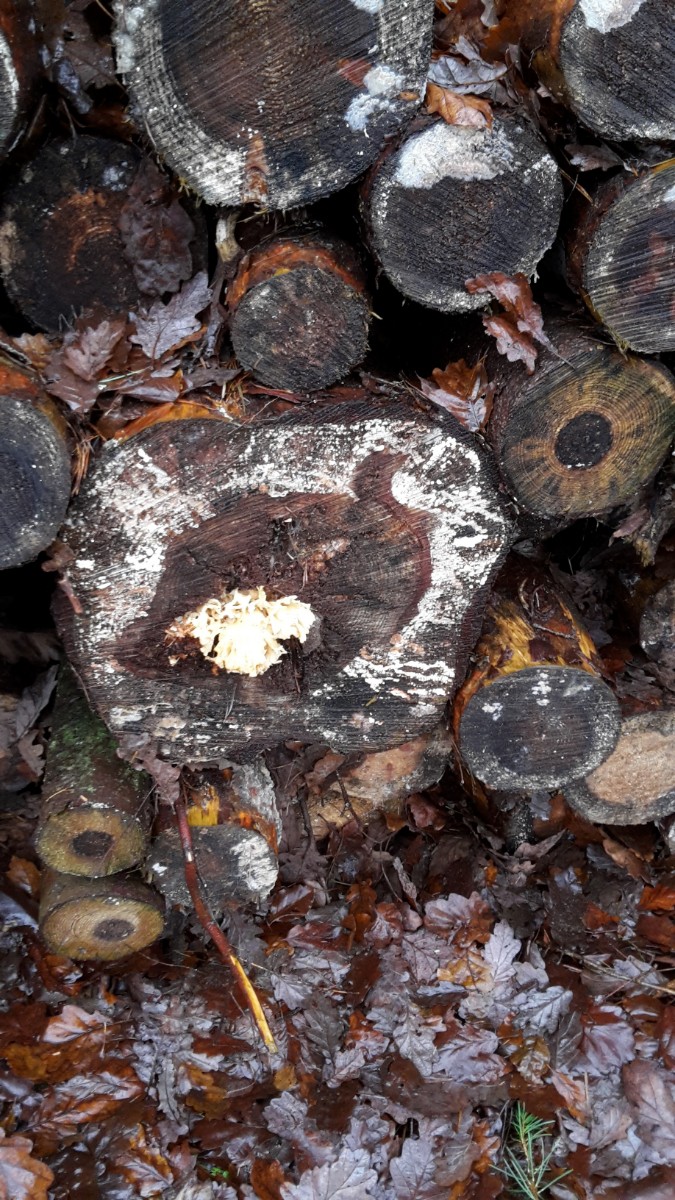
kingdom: Fungi
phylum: Basidiomycota
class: Agaricomycetes
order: Polyporales
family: Sparassidaceae
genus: Sparassis
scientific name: Sparassis crispa
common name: kruset blomkålssvamp
